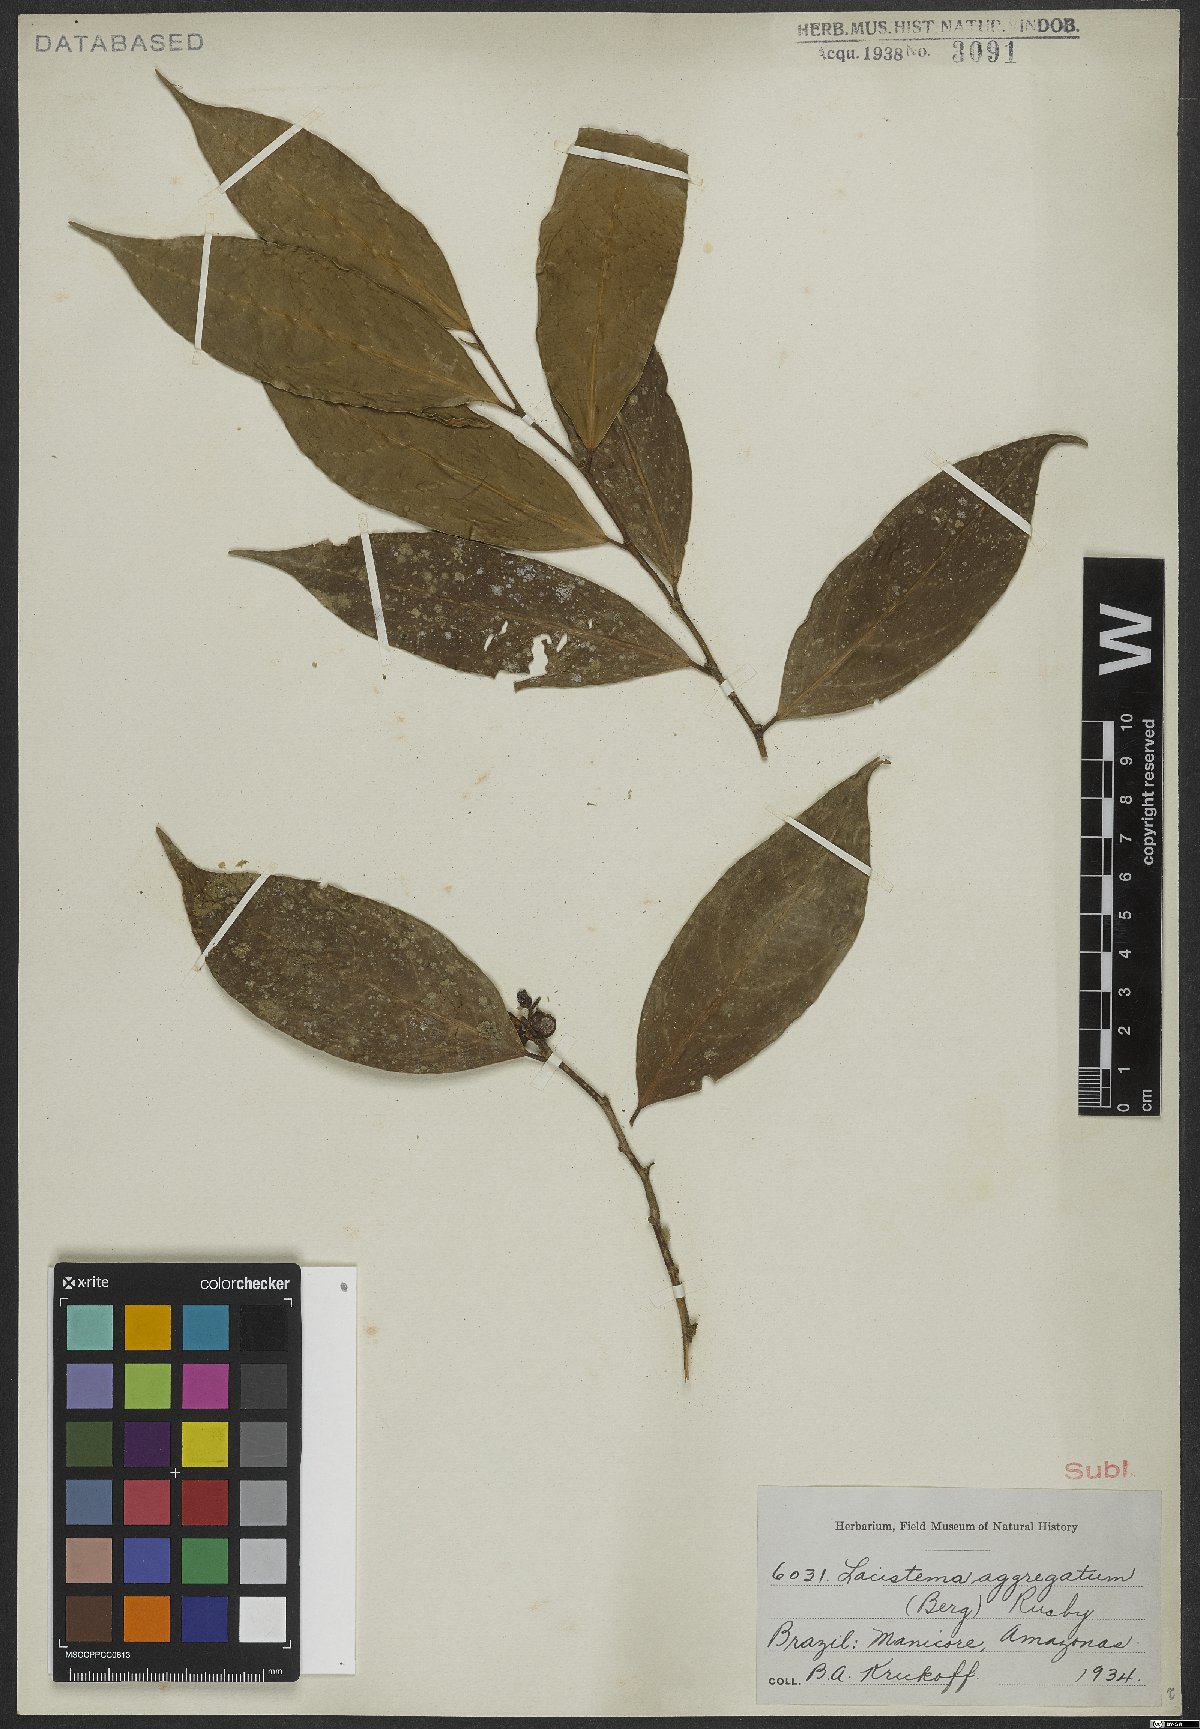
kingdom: Plantae
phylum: Tracheophyta
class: Magnoliopsida
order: Malpighiales
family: Lacistemataceae
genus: Lacistema
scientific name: Lacistema aggregatum
